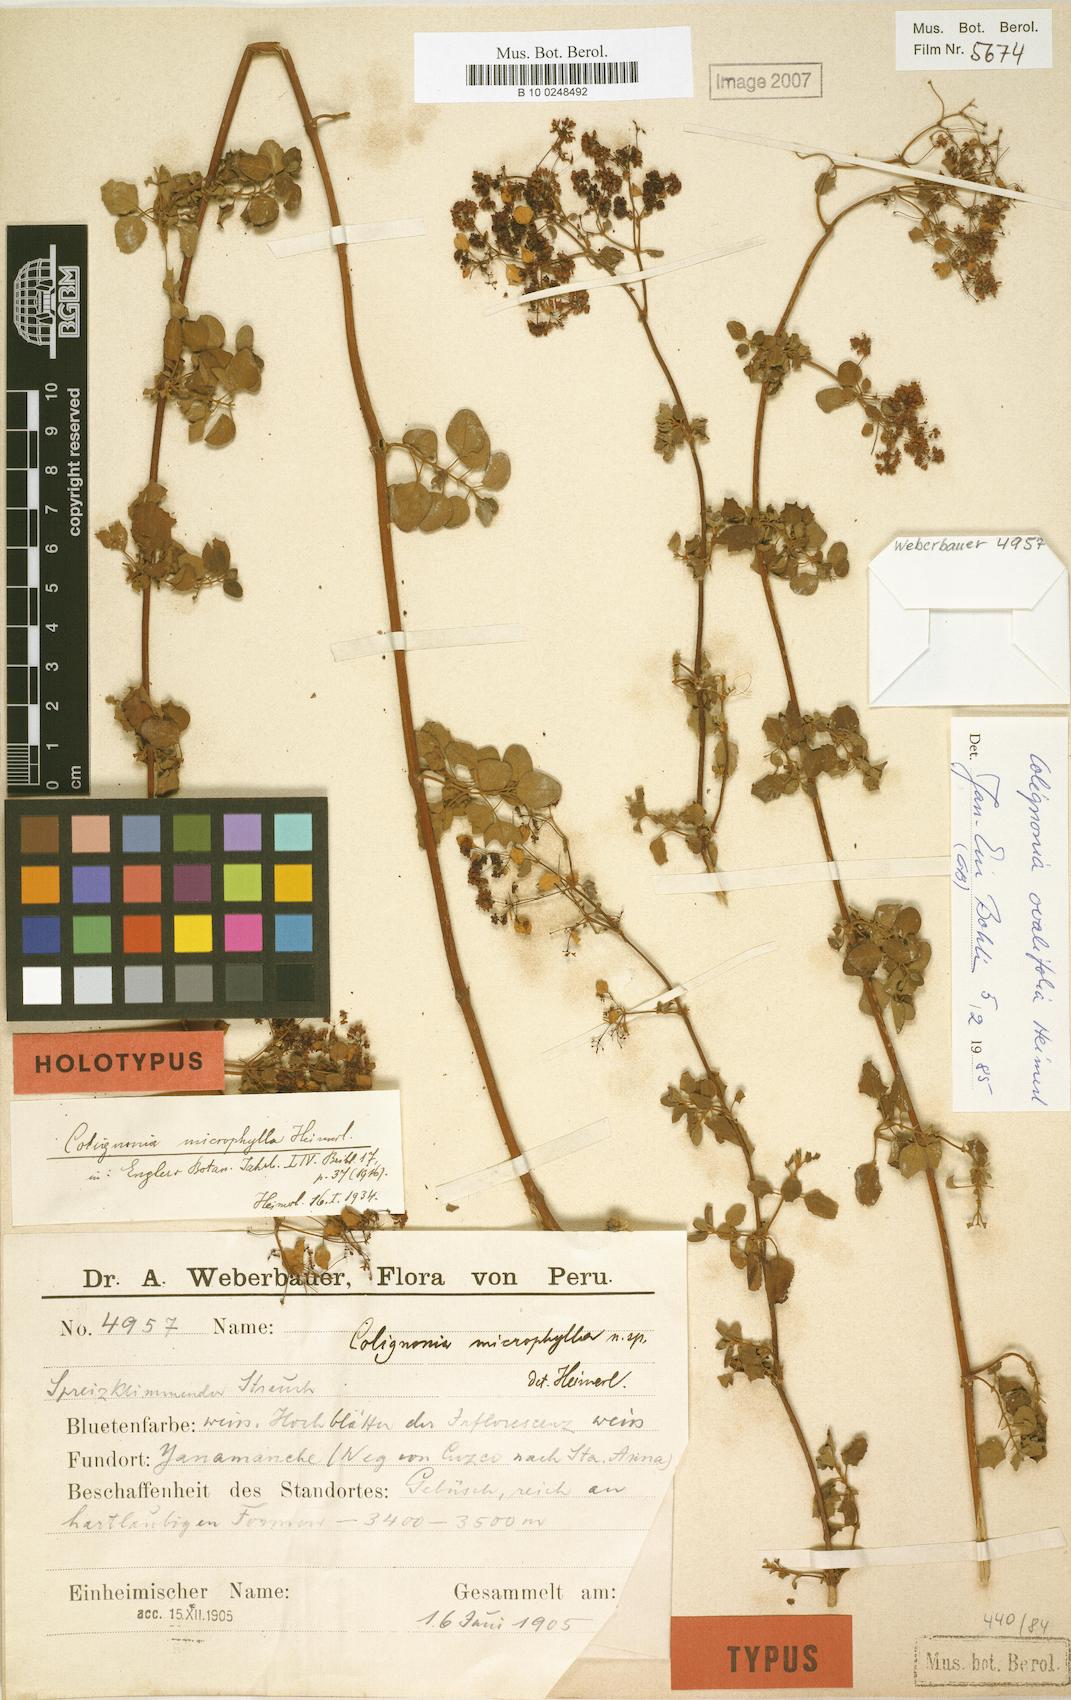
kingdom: Plantae
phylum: Tracheophyta
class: Magnoliopsida
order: Caryophyllales
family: Nyctaginaceae
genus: Colignonia
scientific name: Colignonia ovalifolia
